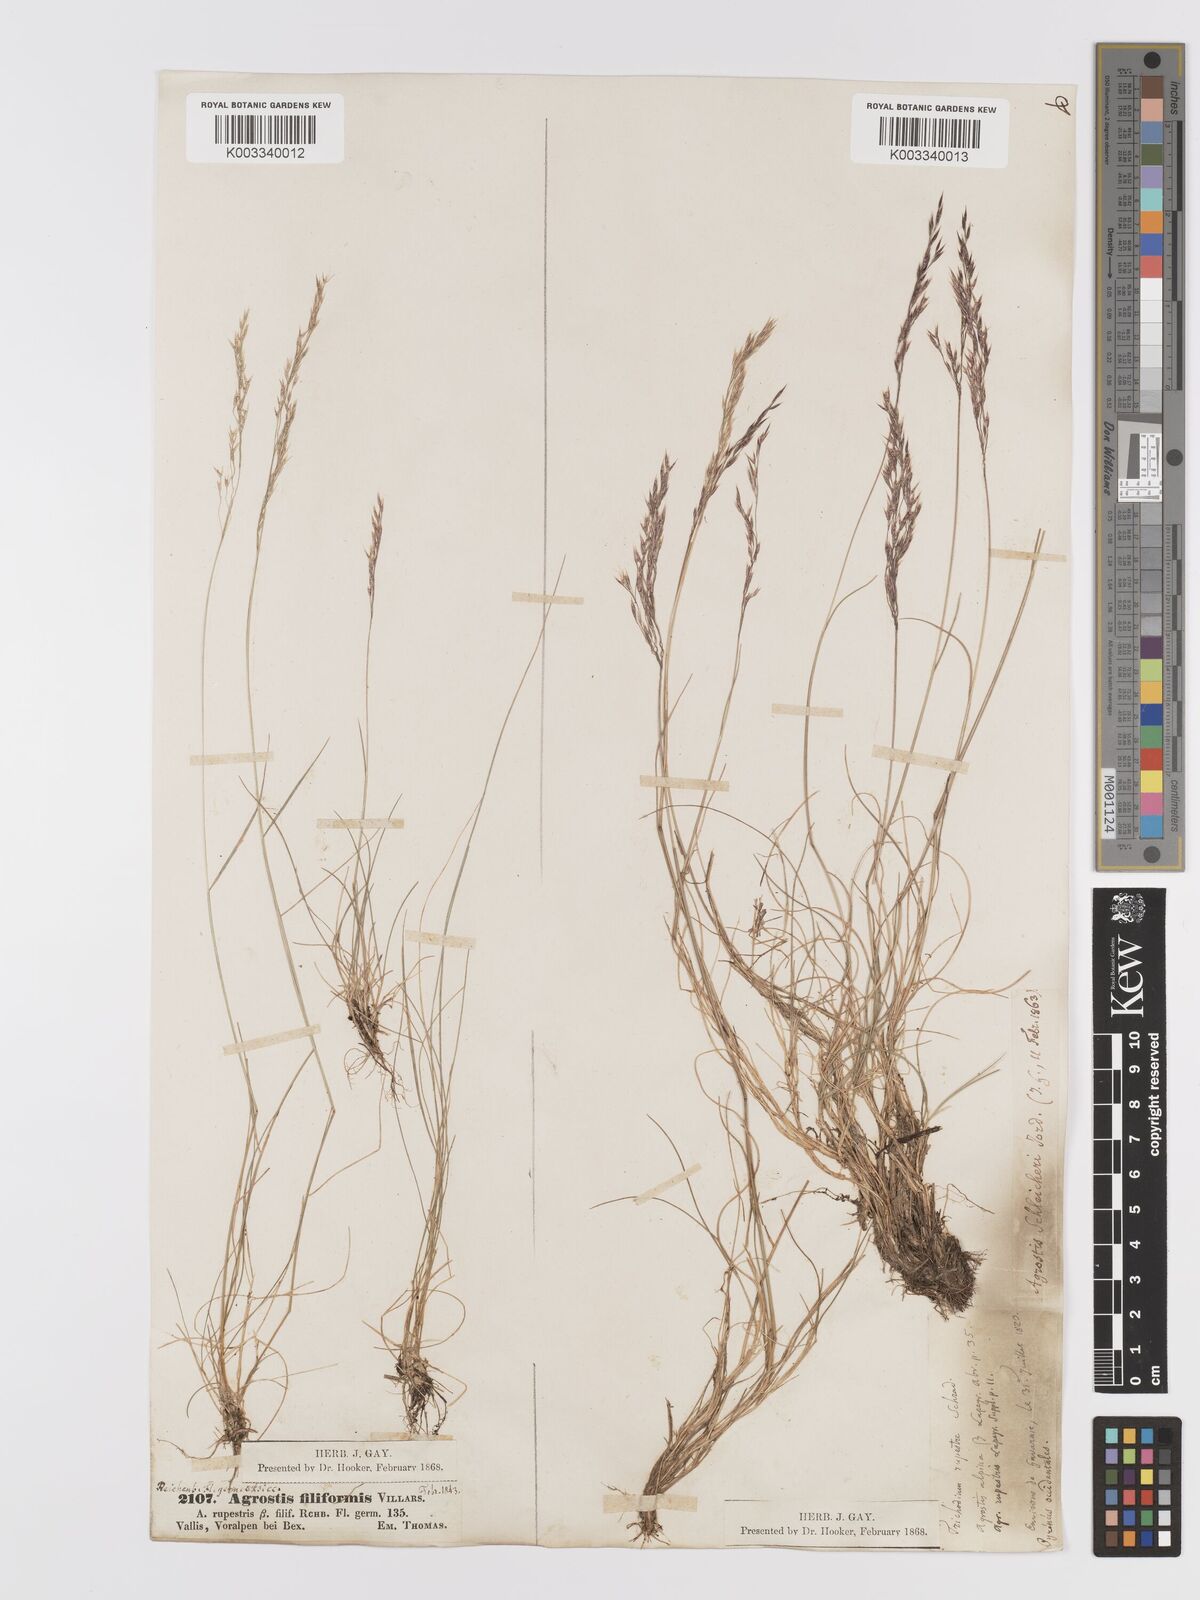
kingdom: Plantae
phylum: Tracheophyta
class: Liliopsida
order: Poales
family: Poaceae
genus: Alpagrostis
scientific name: Alpagrostis schleicheri
